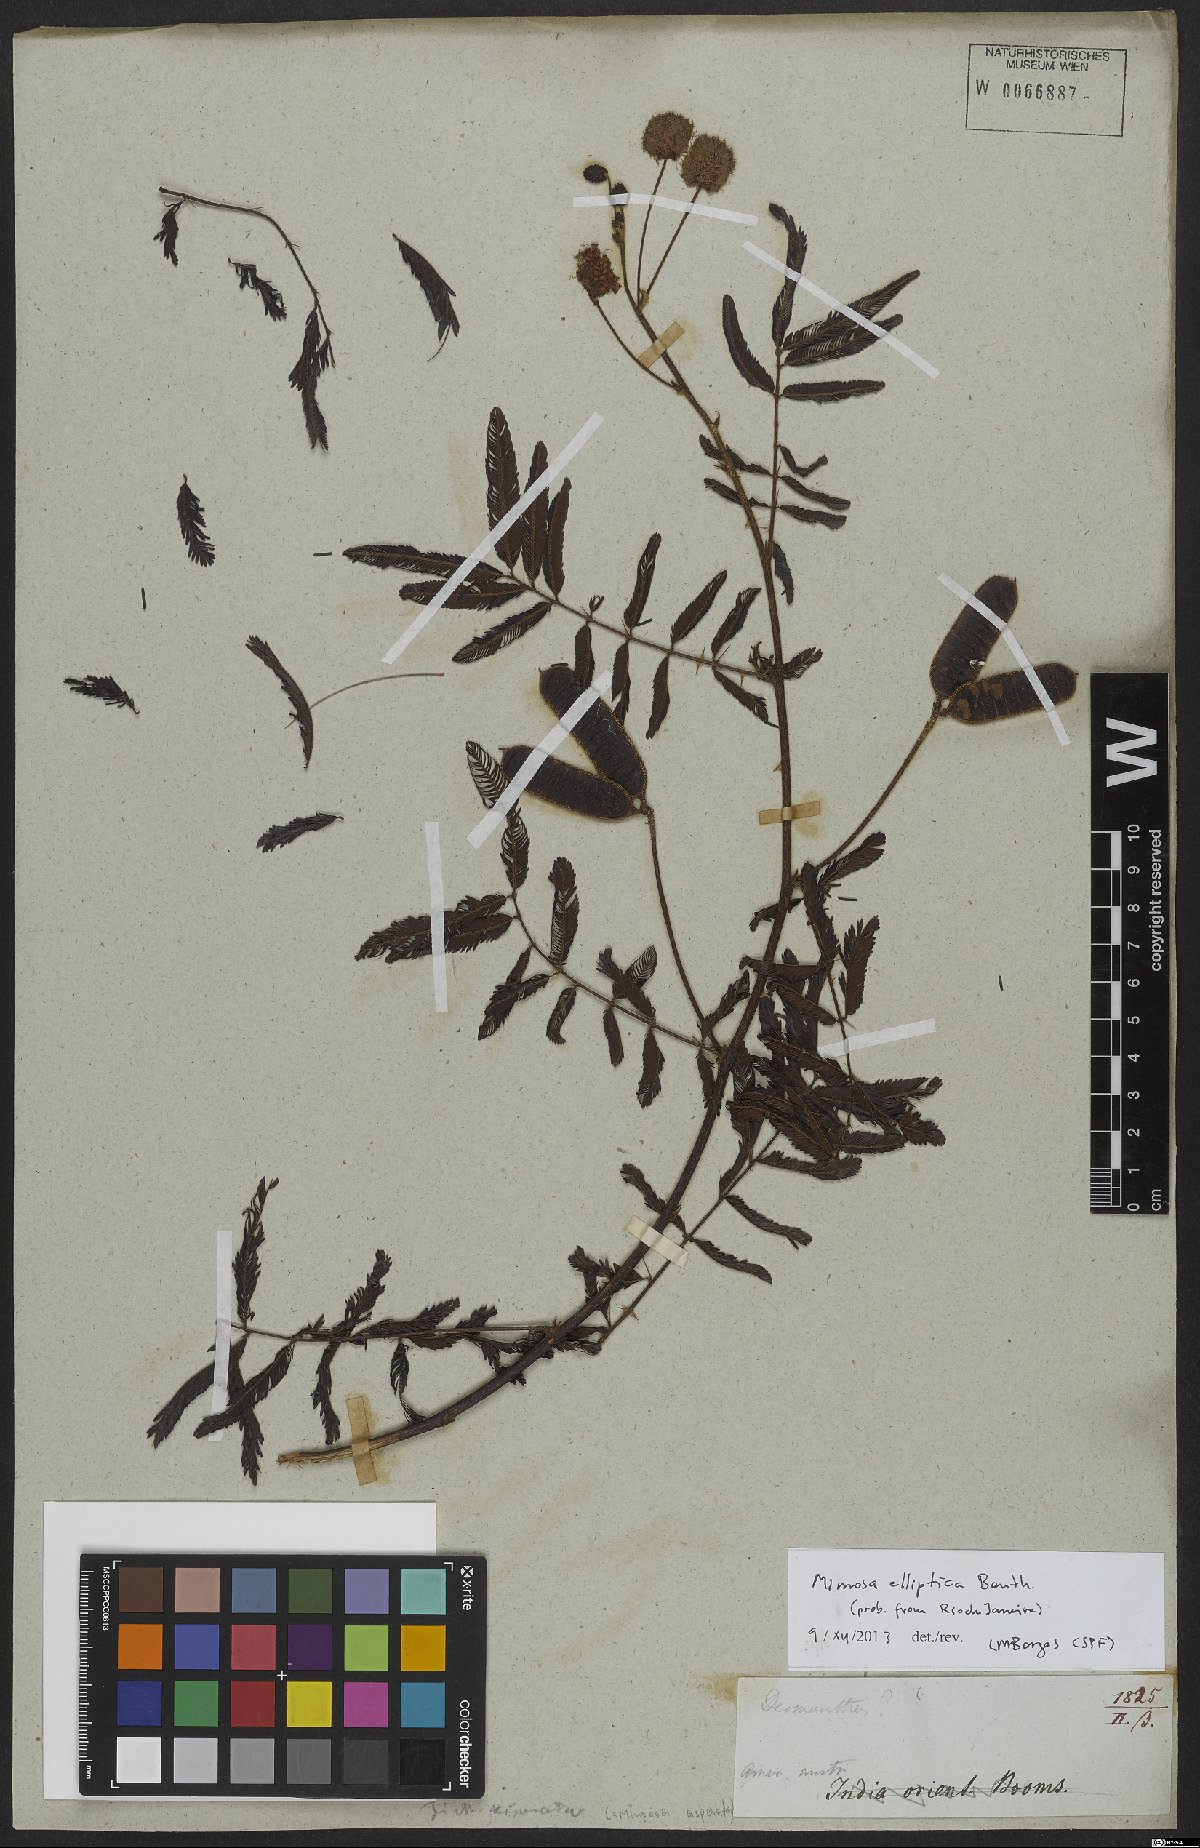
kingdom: Plantae
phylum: Tracheophyta
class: Magnoliopsida
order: Fabales
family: Fabaceae
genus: Mimosa
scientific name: Mimosa elliptica
